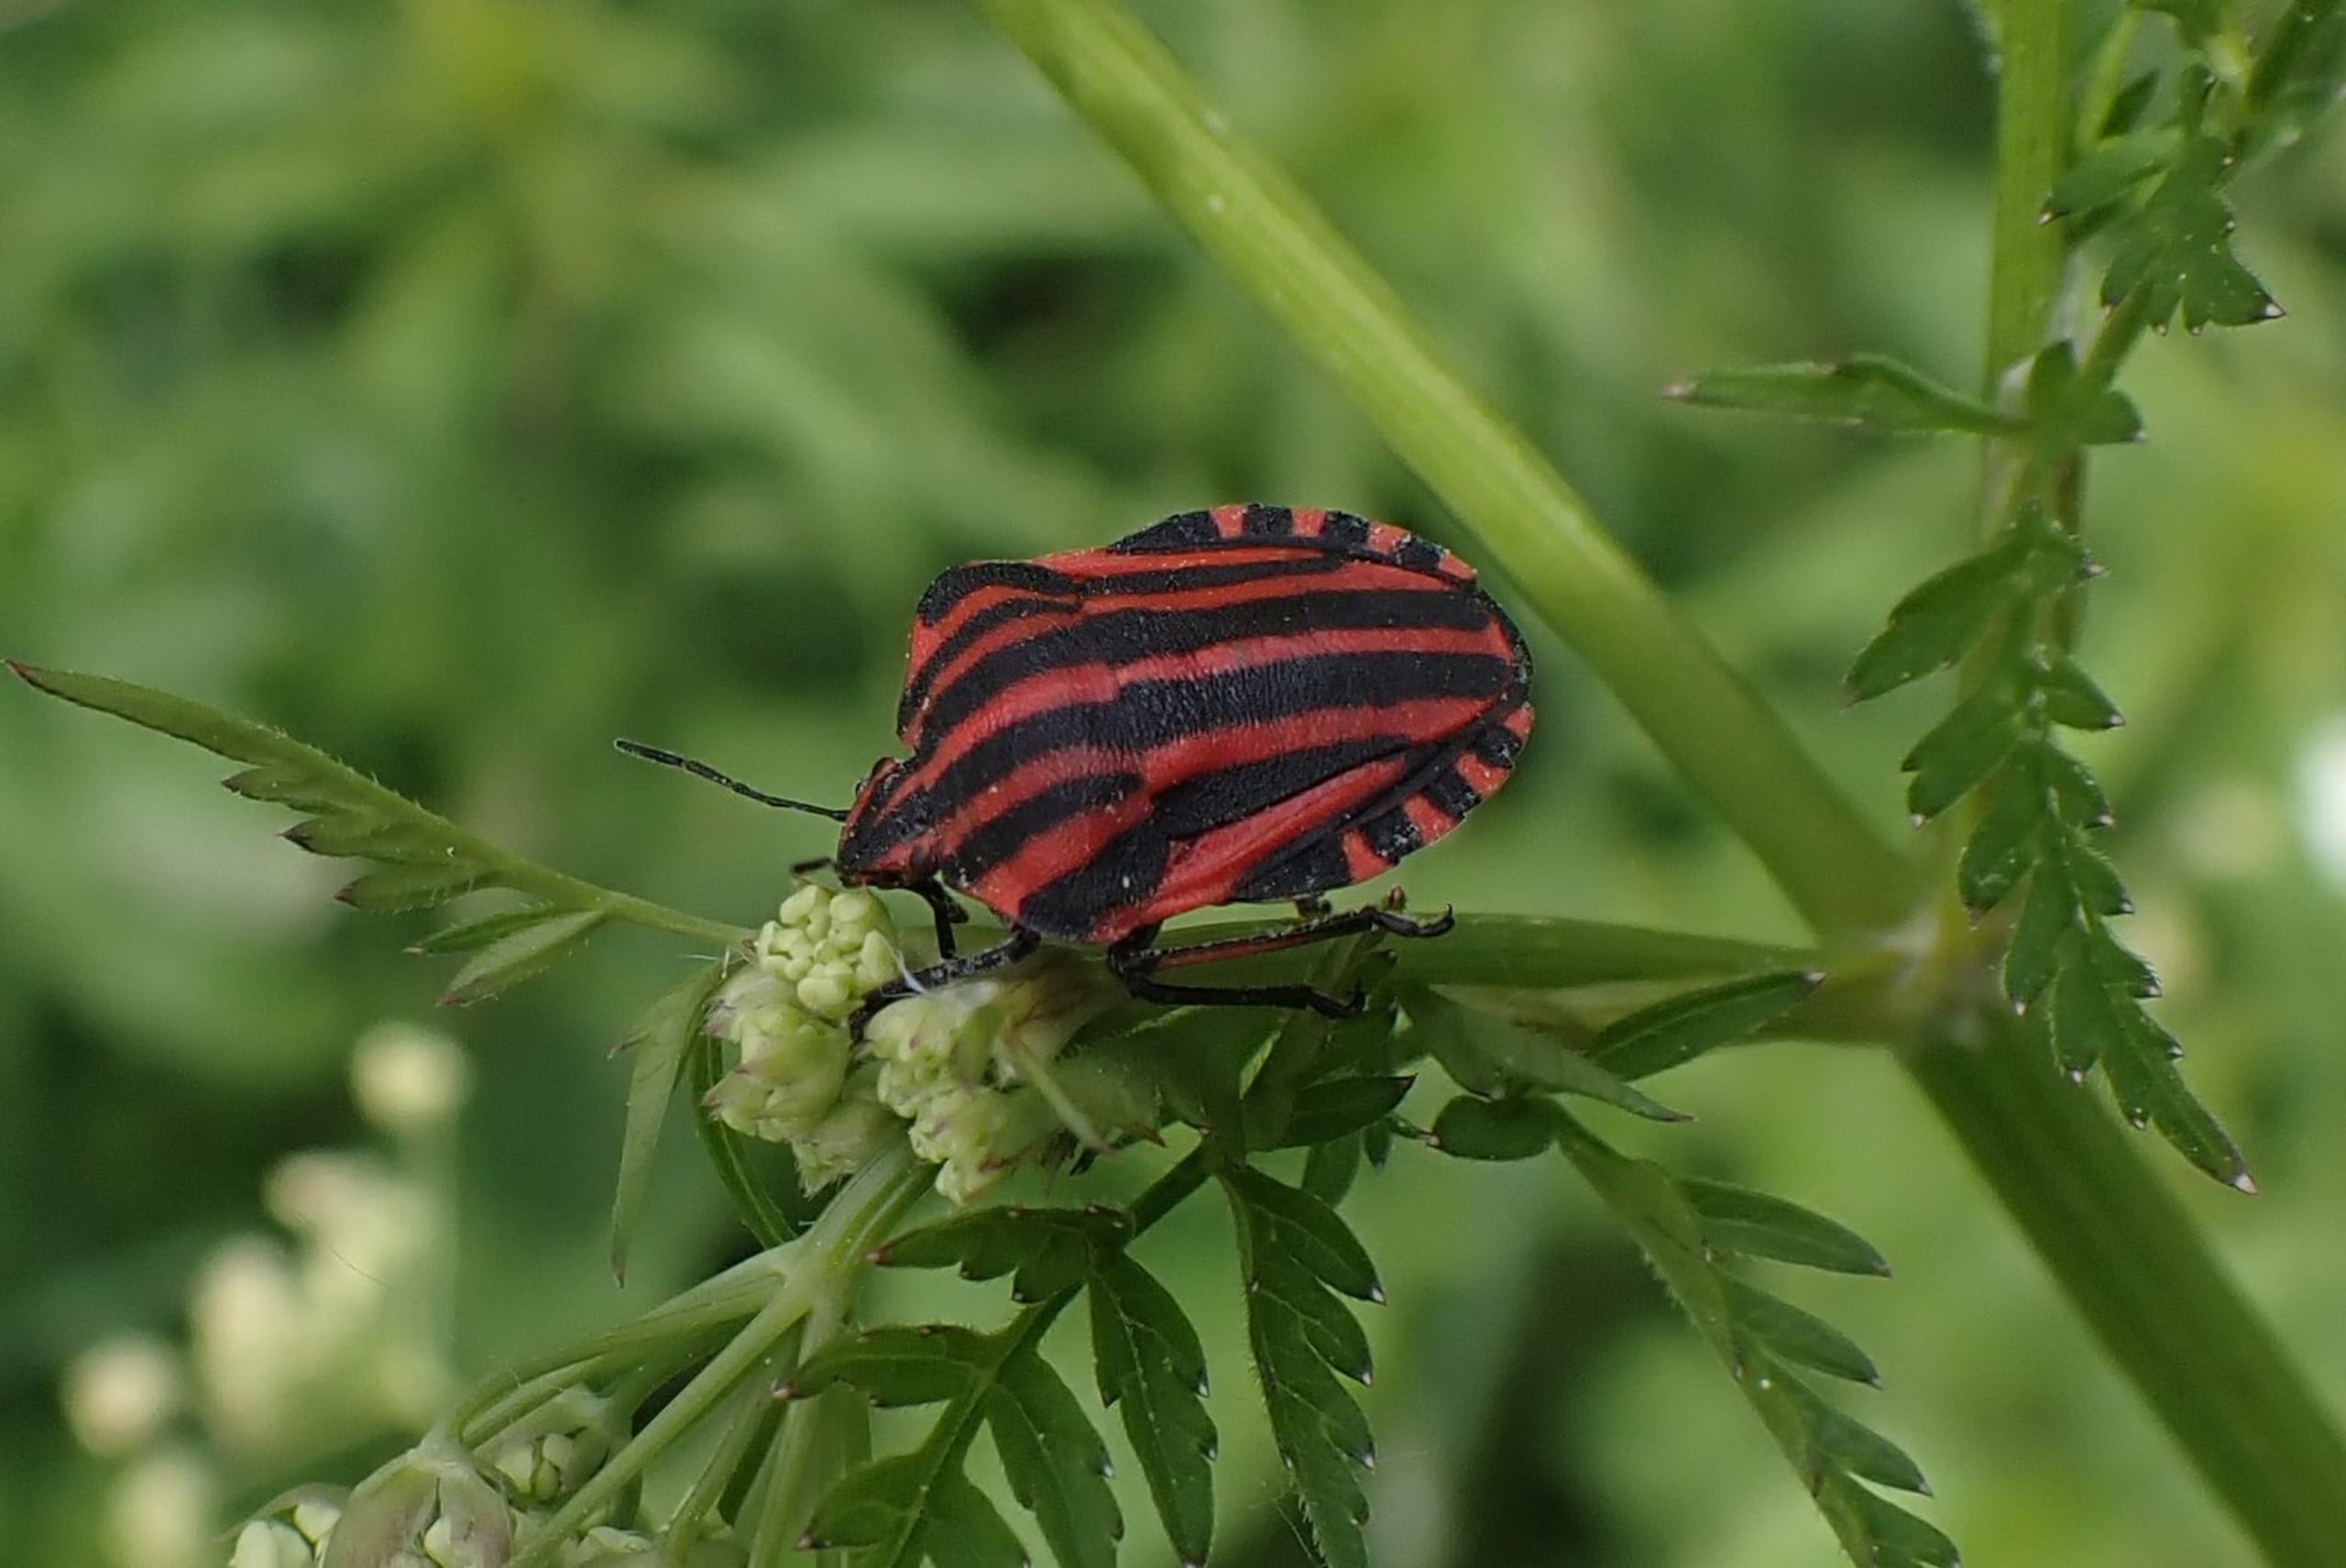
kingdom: Animalia
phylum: Arthropoda
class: Insecta
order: Hemiptera
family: Pentatomidae
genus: Graphosoma
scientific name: Graphosoma italicum
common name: Stribetæge
